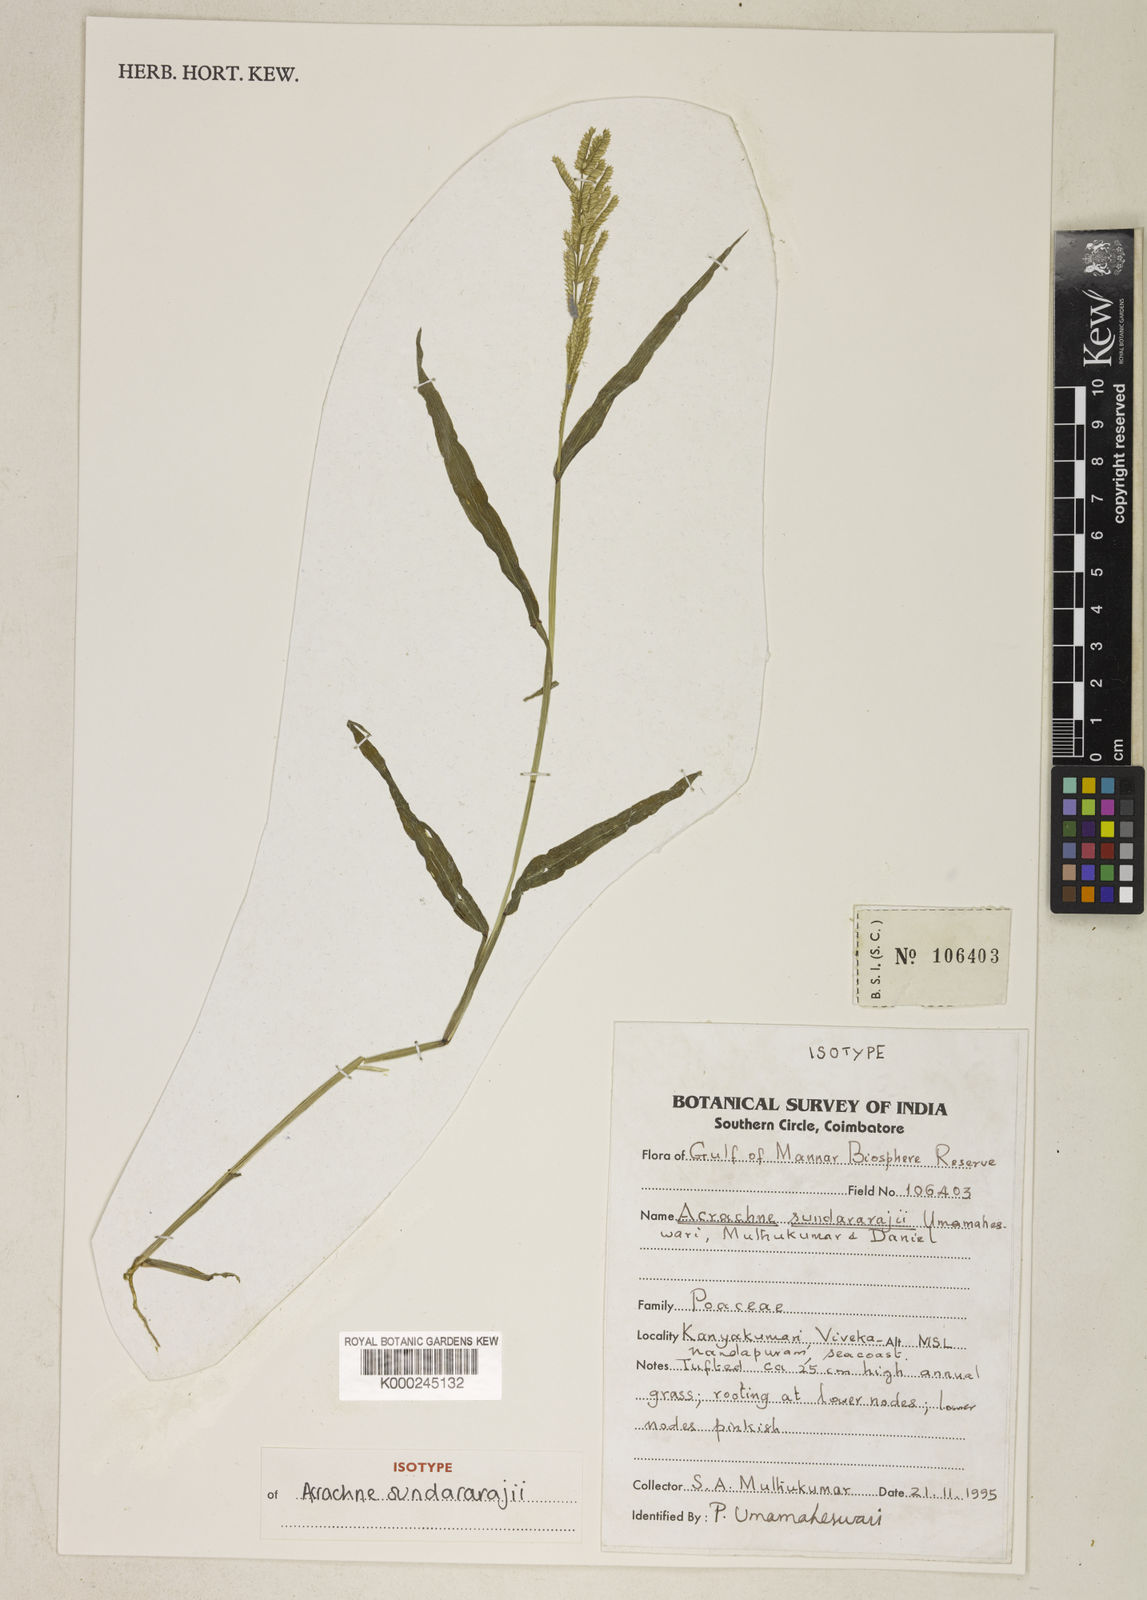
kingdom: Plantae
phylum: Tracheophyta
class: Liliopsida
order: Poales
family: Poaceae
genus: Acrachne
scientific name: Acrachne henrardiana
